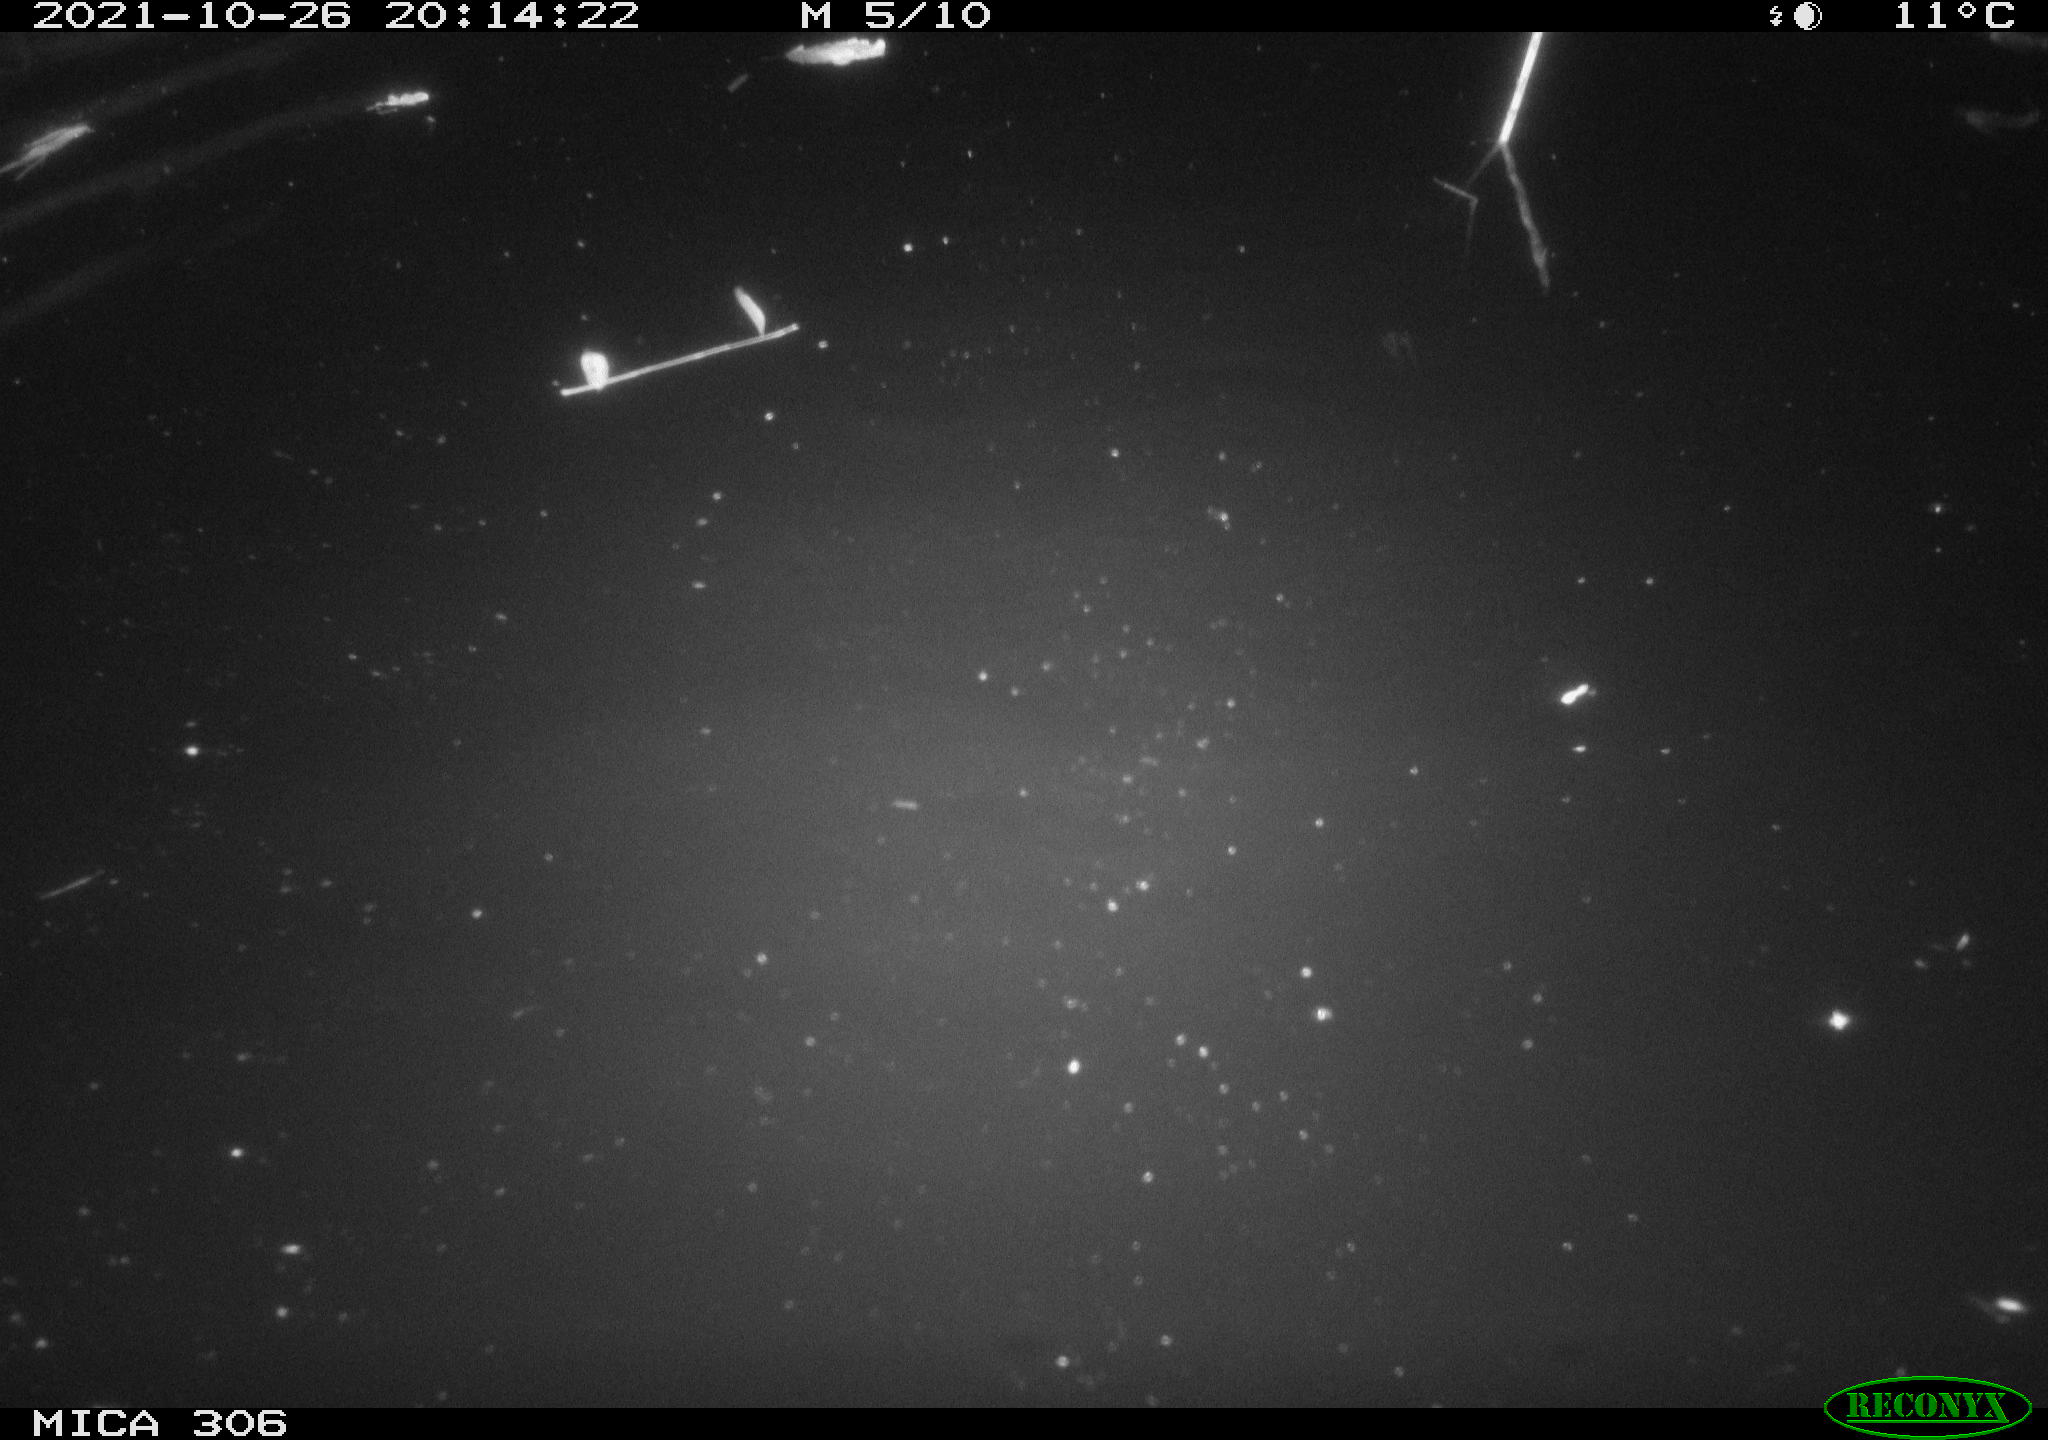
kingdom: Animalia
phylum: Chordata
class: Mammalia
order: Rodentia
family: Cricetidae
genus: Ondatra
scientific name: Ondatra zibethicus
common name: Muskrat
